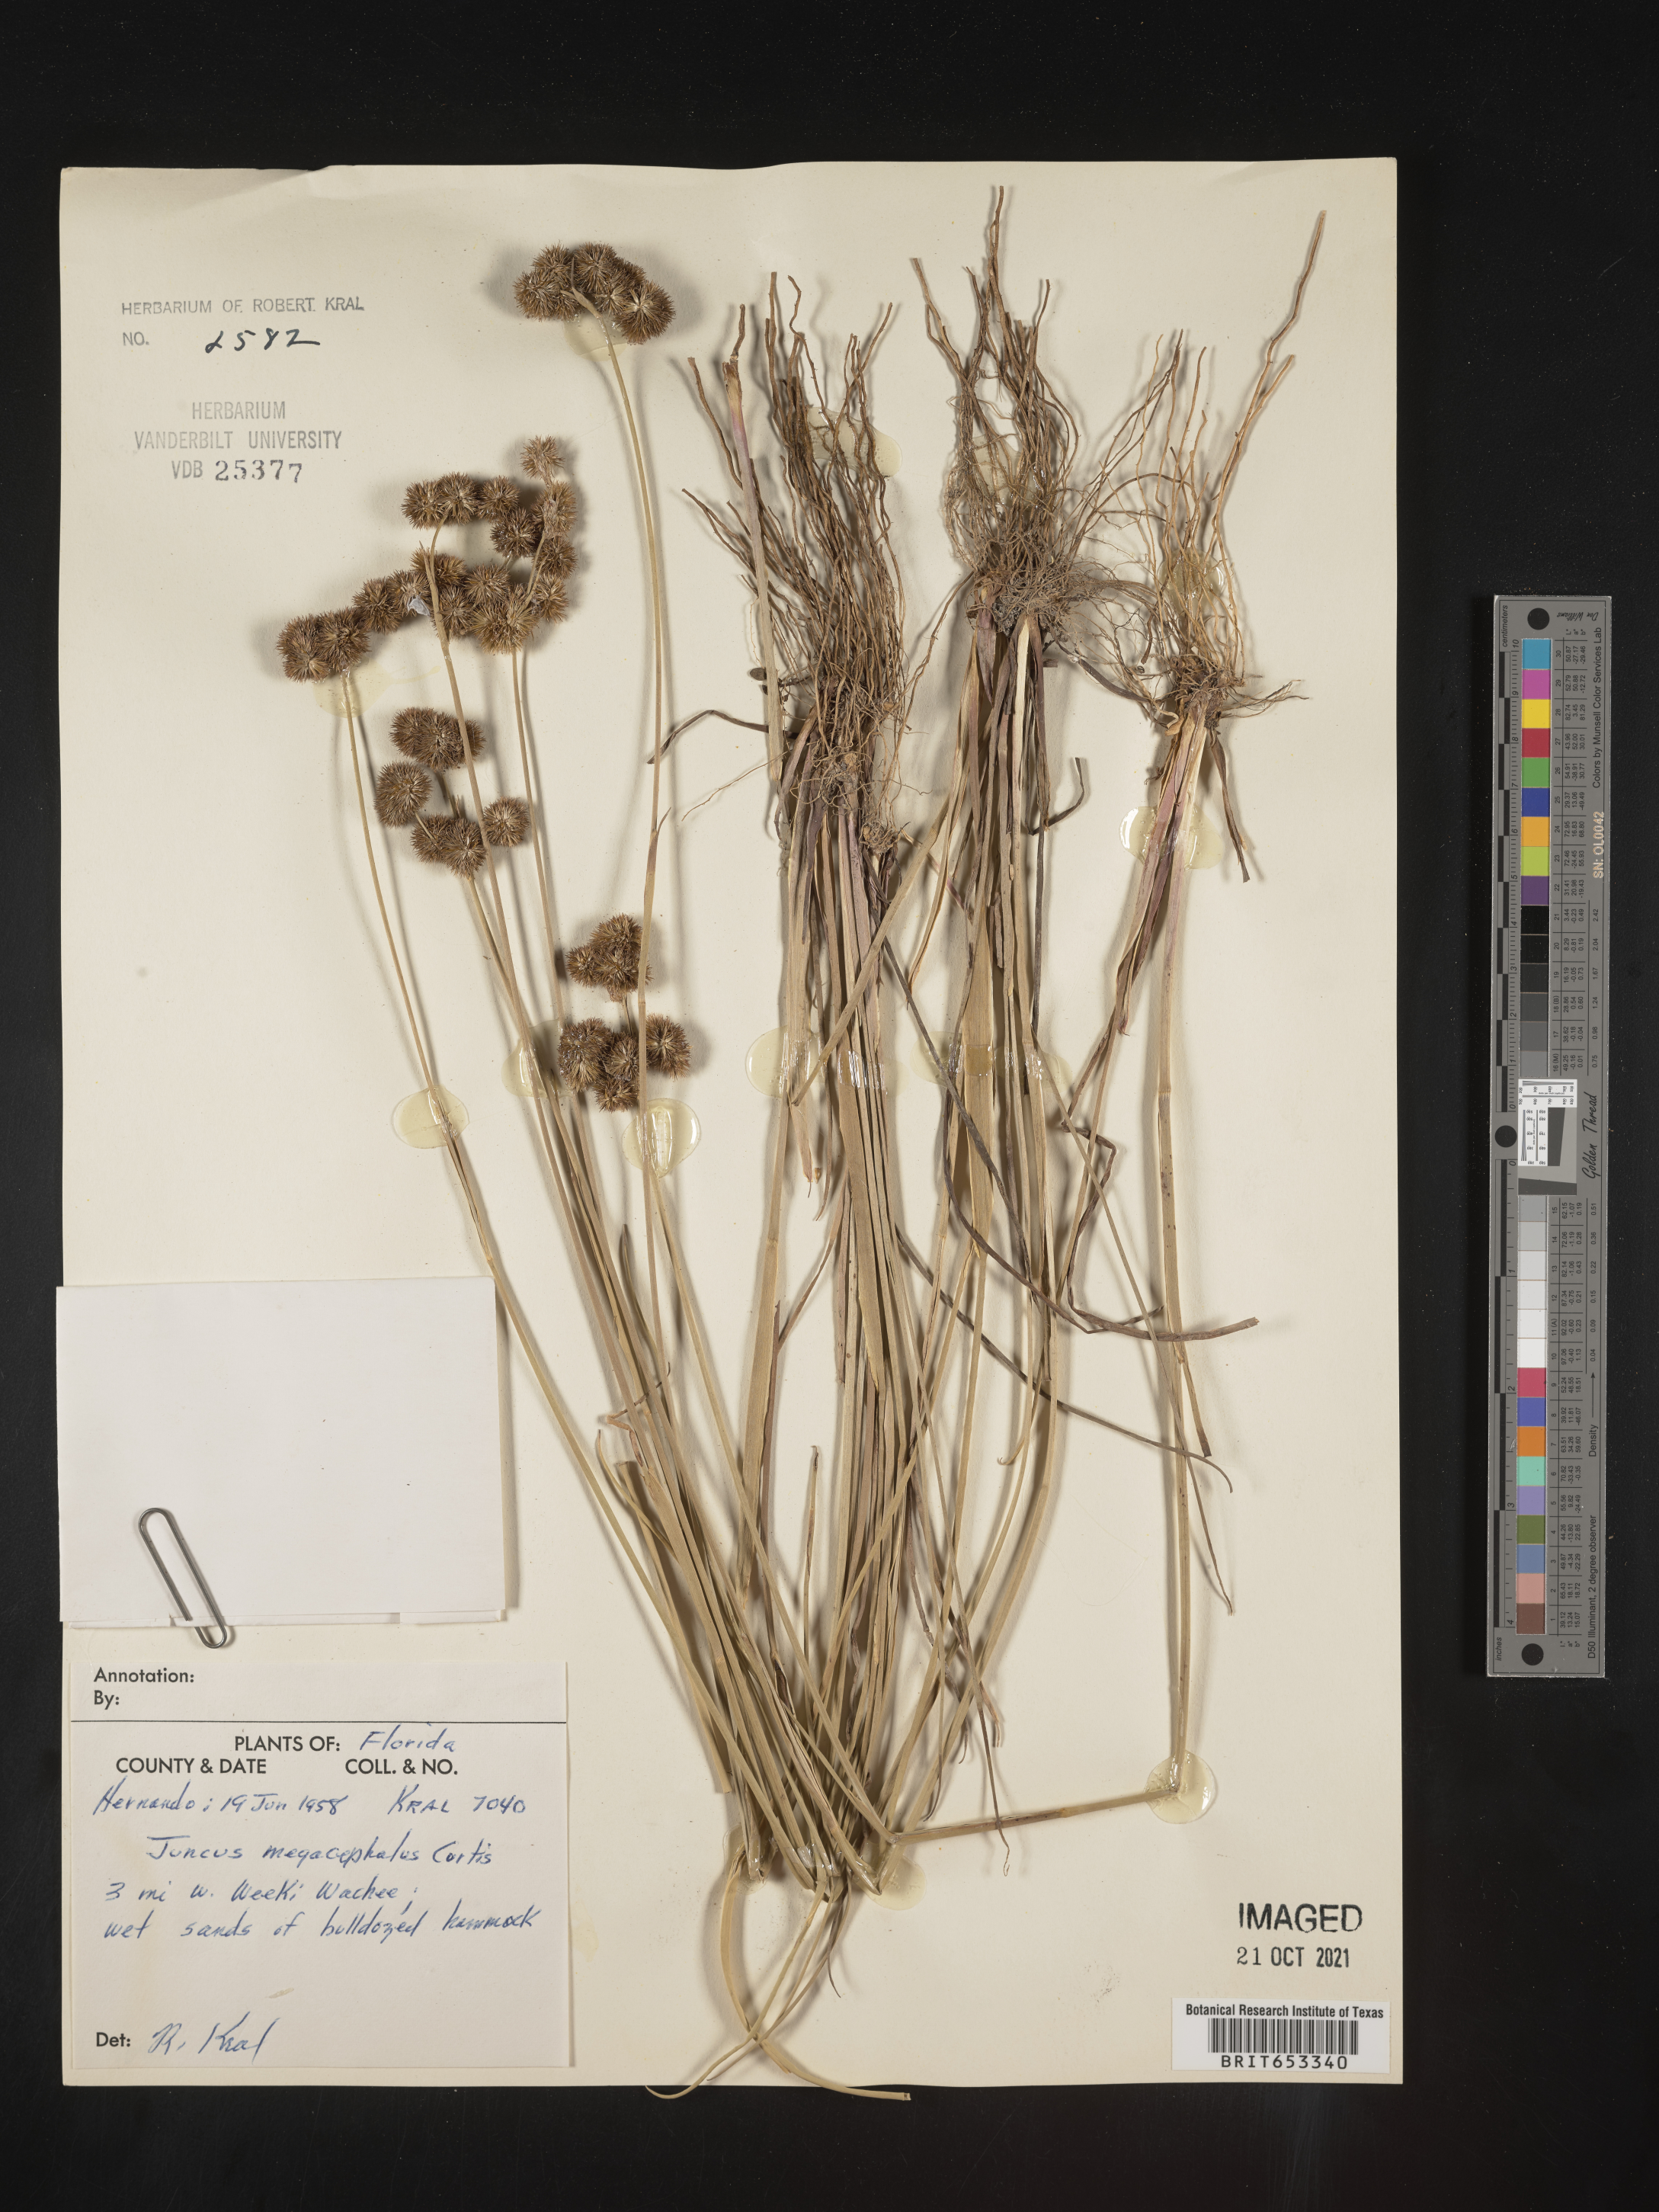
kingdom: Plantae
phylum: Tracheophyta
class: Liliopsida
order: Poales
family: Juncaceae
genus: Juncus
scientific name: Juncus megacephalus
